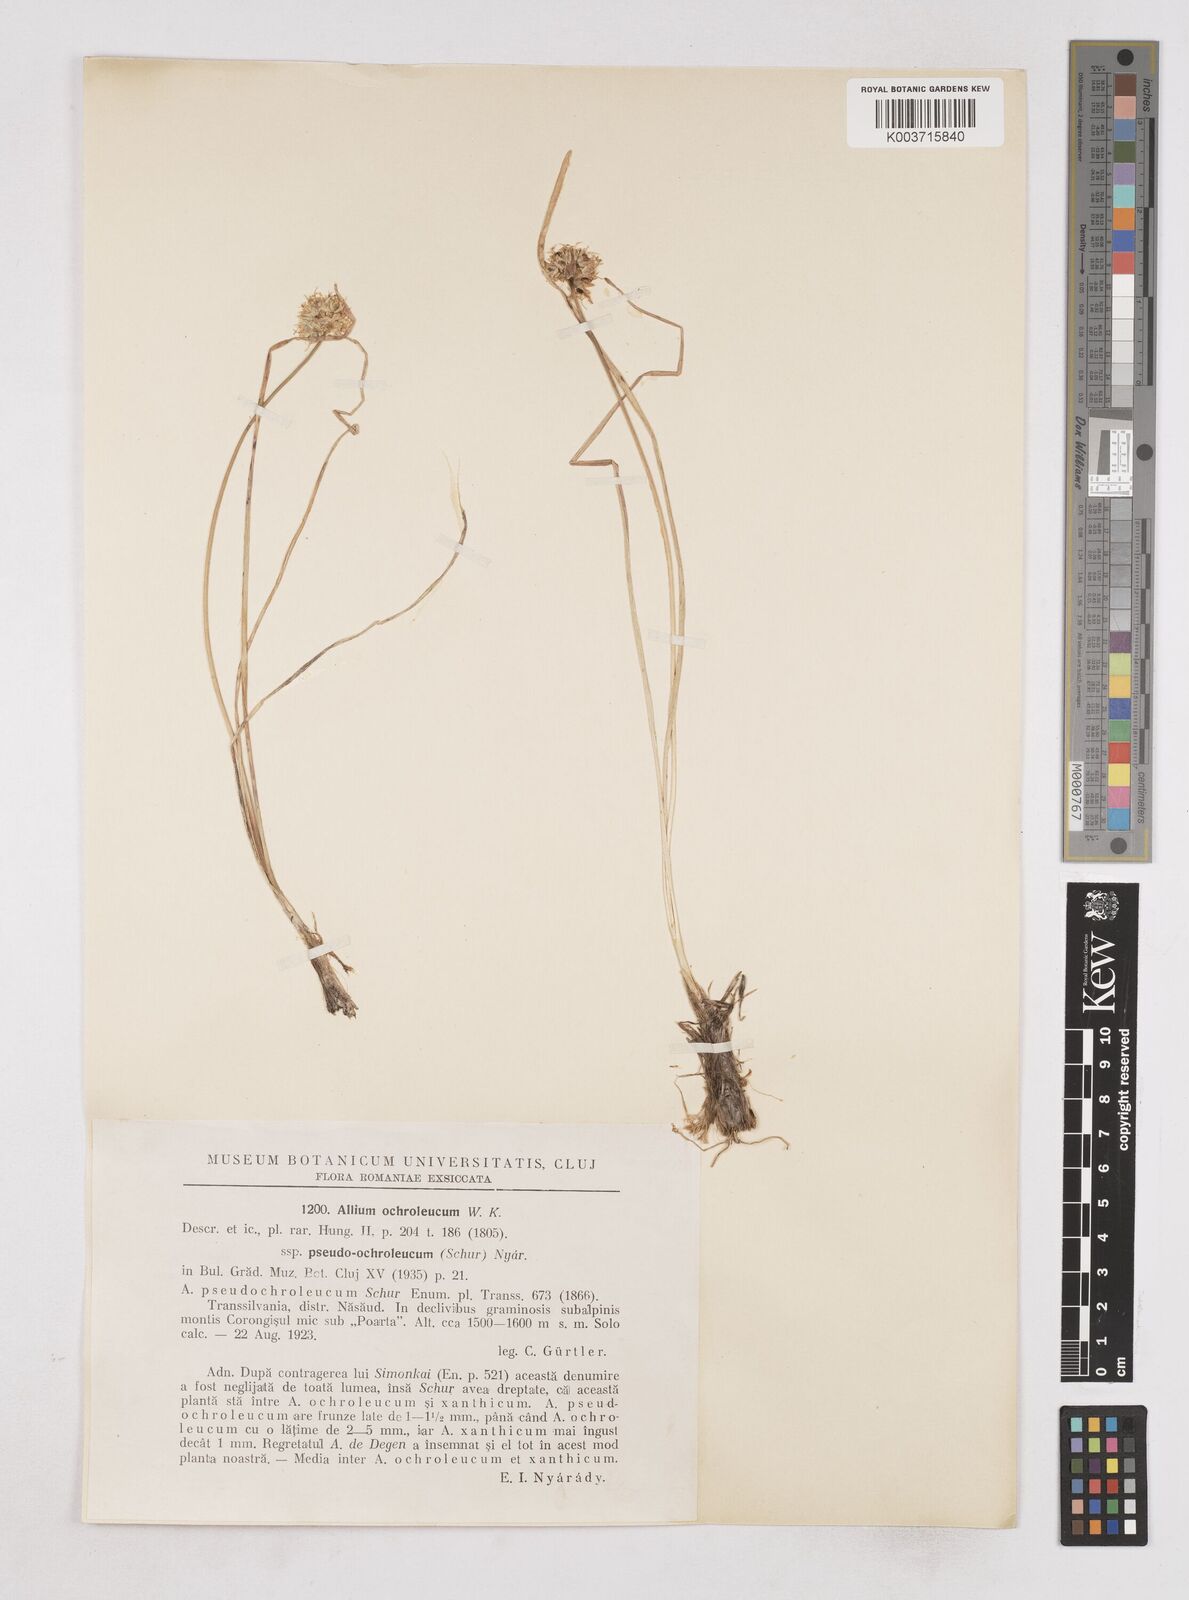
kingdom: Plantae
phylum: Tracheophyta
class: Liliopsida
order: Asparagales
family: Amaryllidaceae
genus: Allium
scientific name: Allium ericetorum
